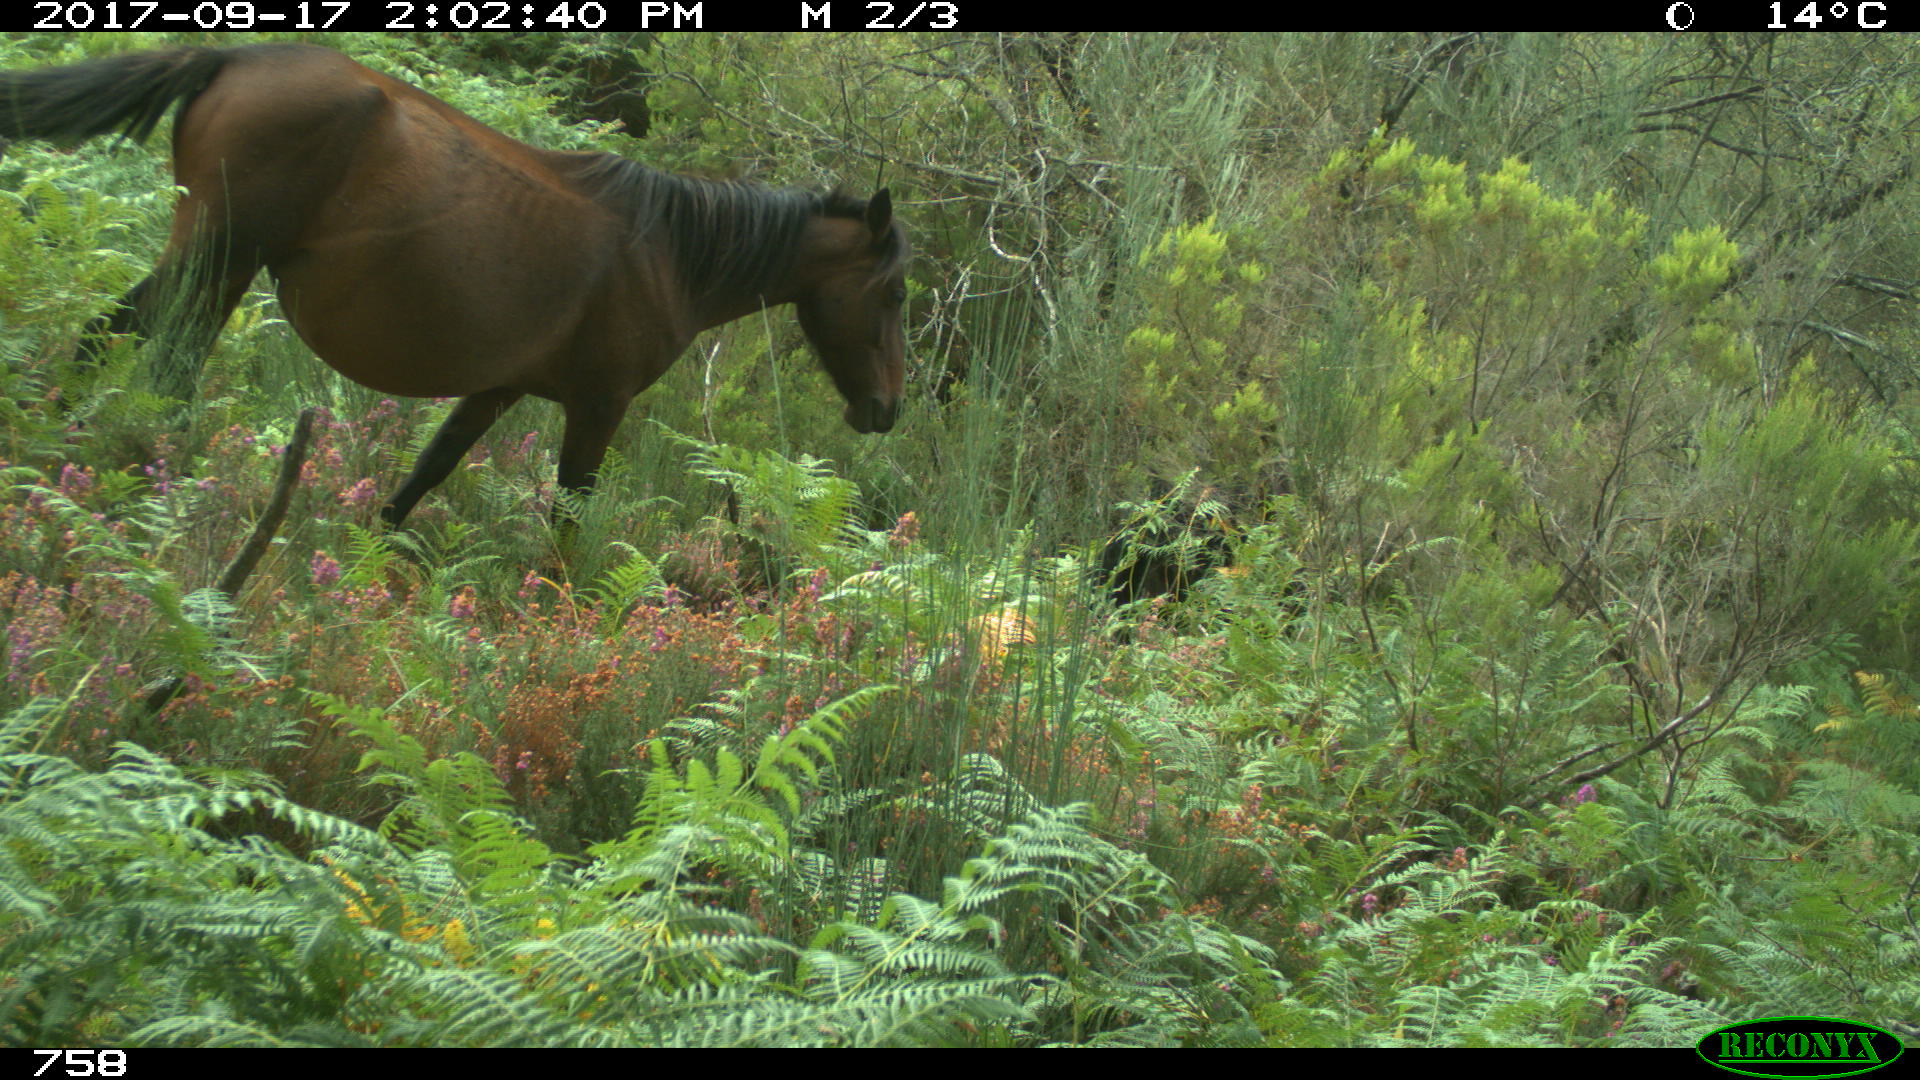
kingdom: Animalia
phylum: Chordata
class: Mammalia
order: Perissodactyla
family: Equidae
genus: Equus
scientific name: Equus caballus
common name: Horse
